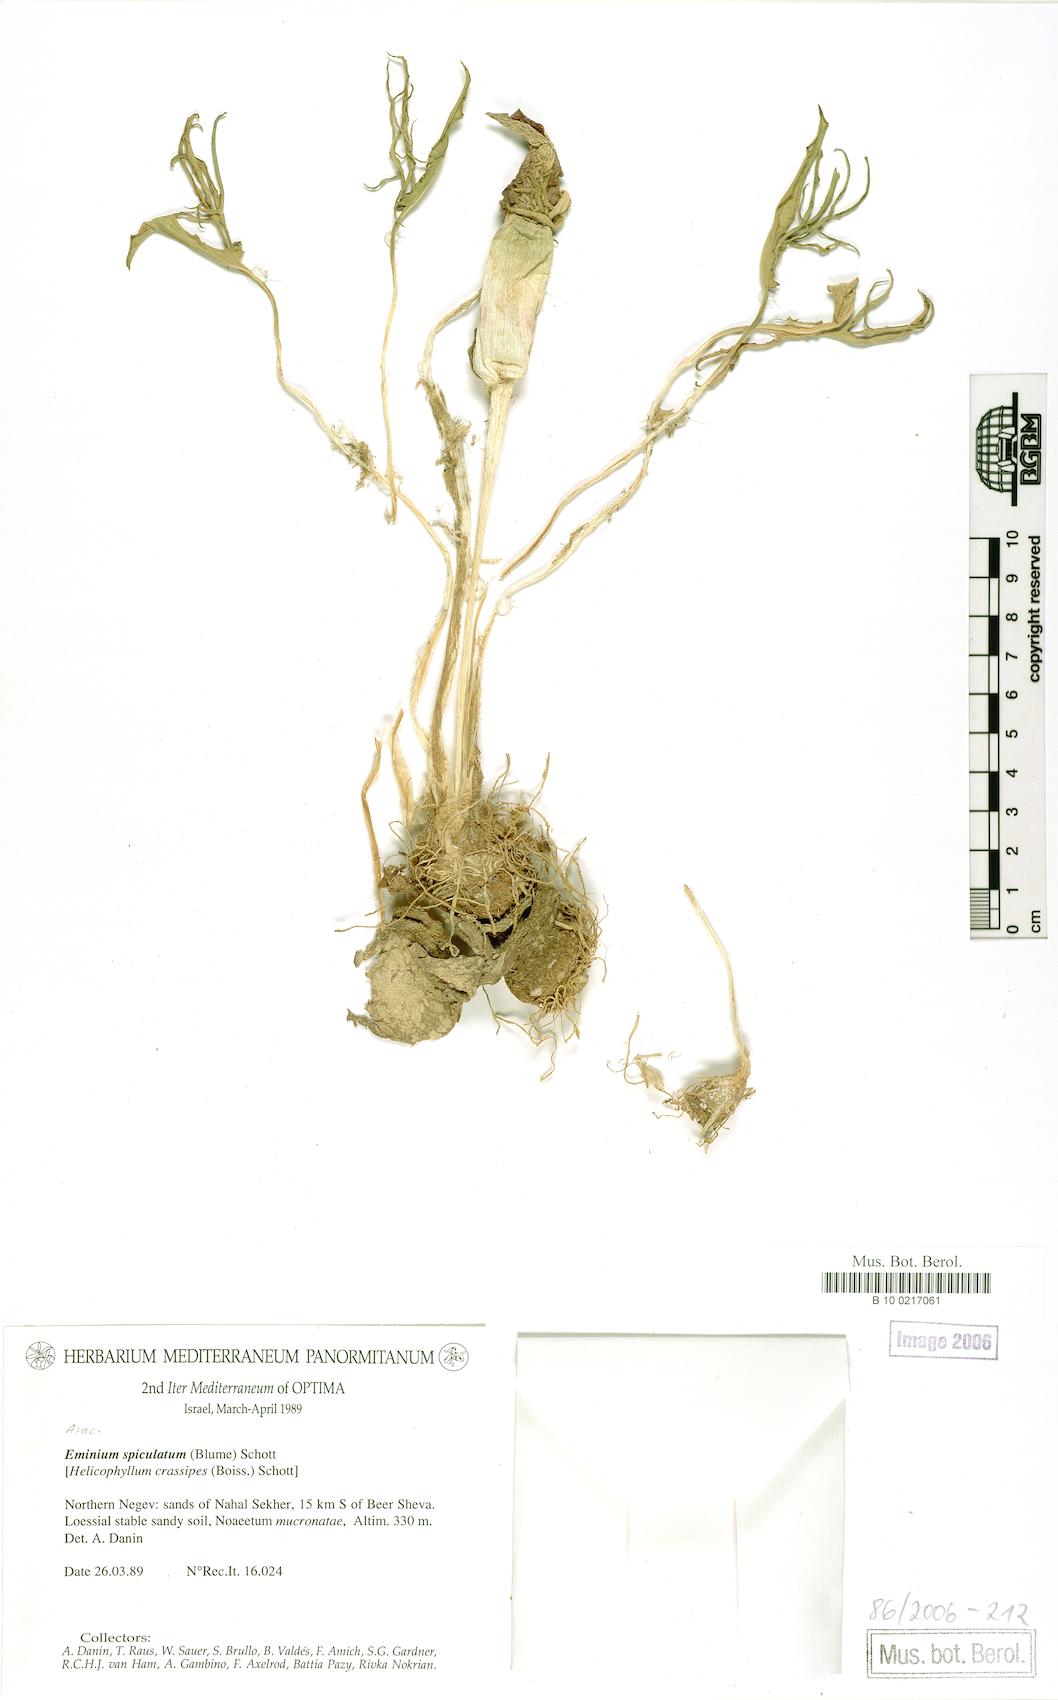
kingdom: Plantae
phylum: Tracheophyta
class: Liliopsida
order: Alismatales
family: Araceae
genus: Eminium
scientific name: Eminium spiculatum
